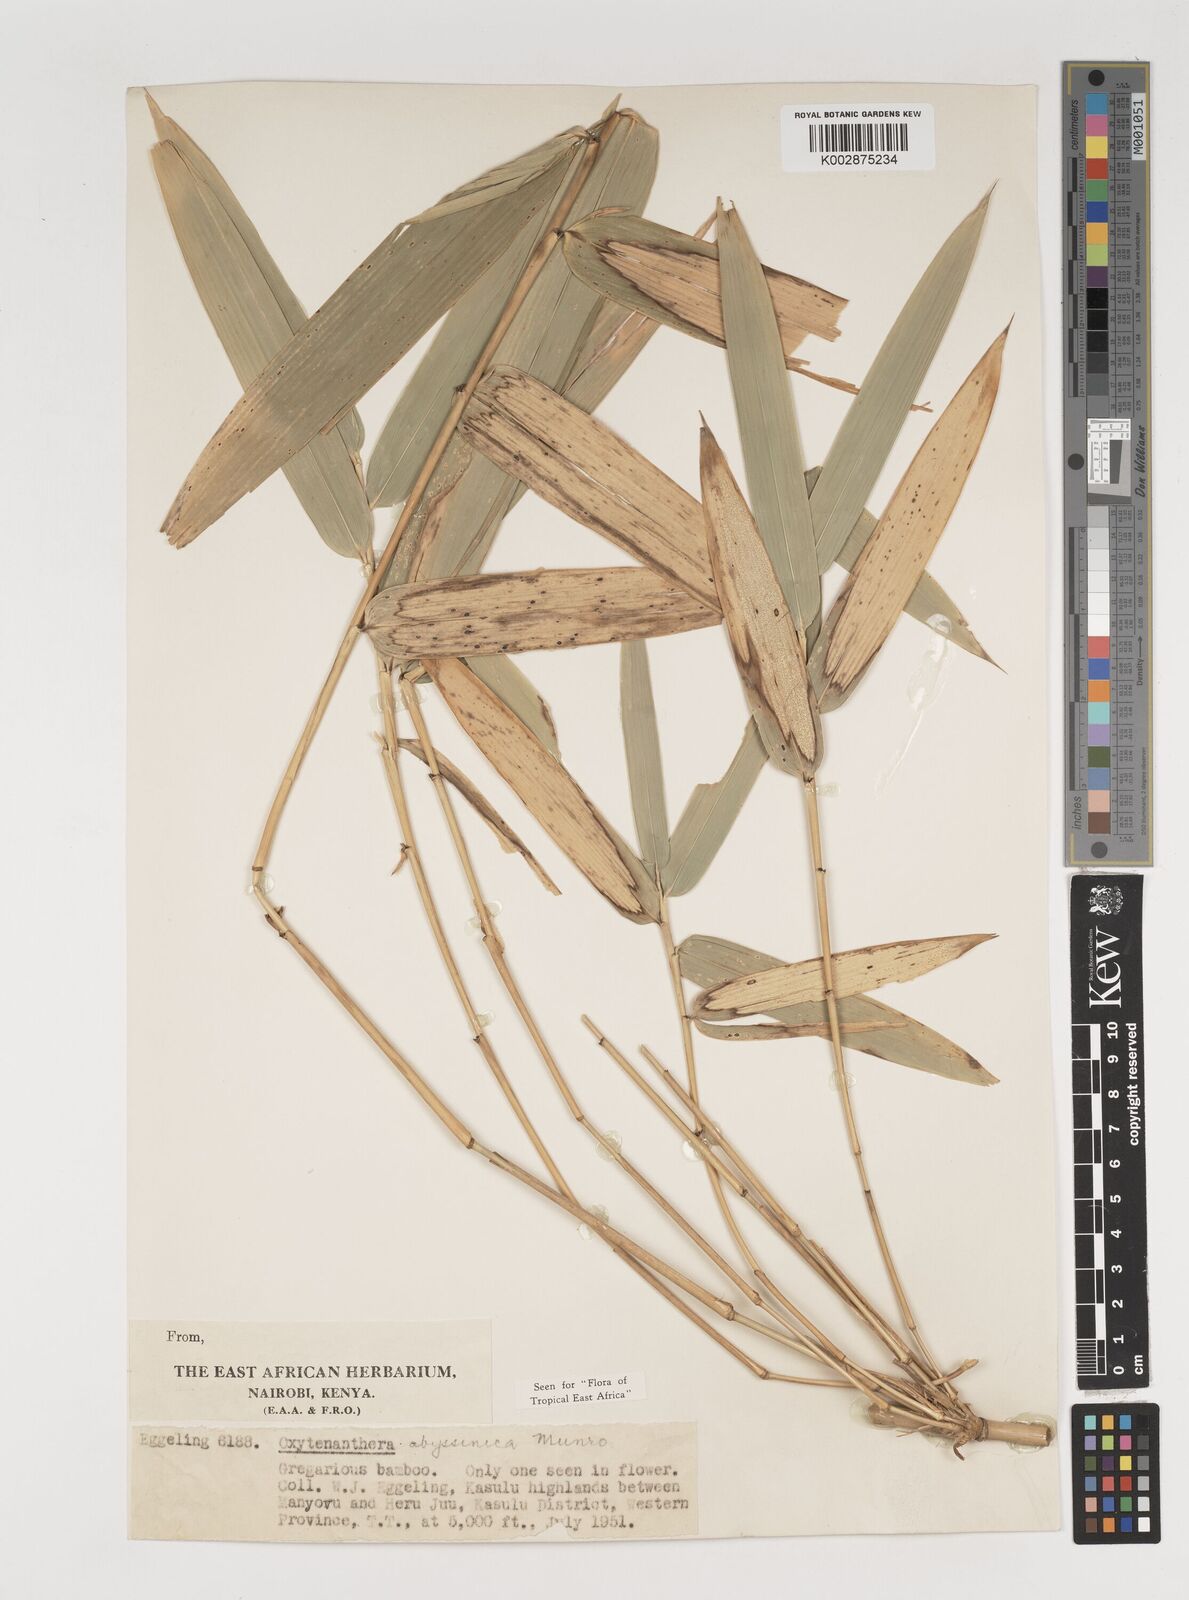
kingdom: Plantae
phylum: Tracheophyta
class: Liliopsida
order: Poales
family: Poaceae
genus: Oxytenanthera
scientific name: Oxytenanthera abyssinica
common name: Wine bamboo
